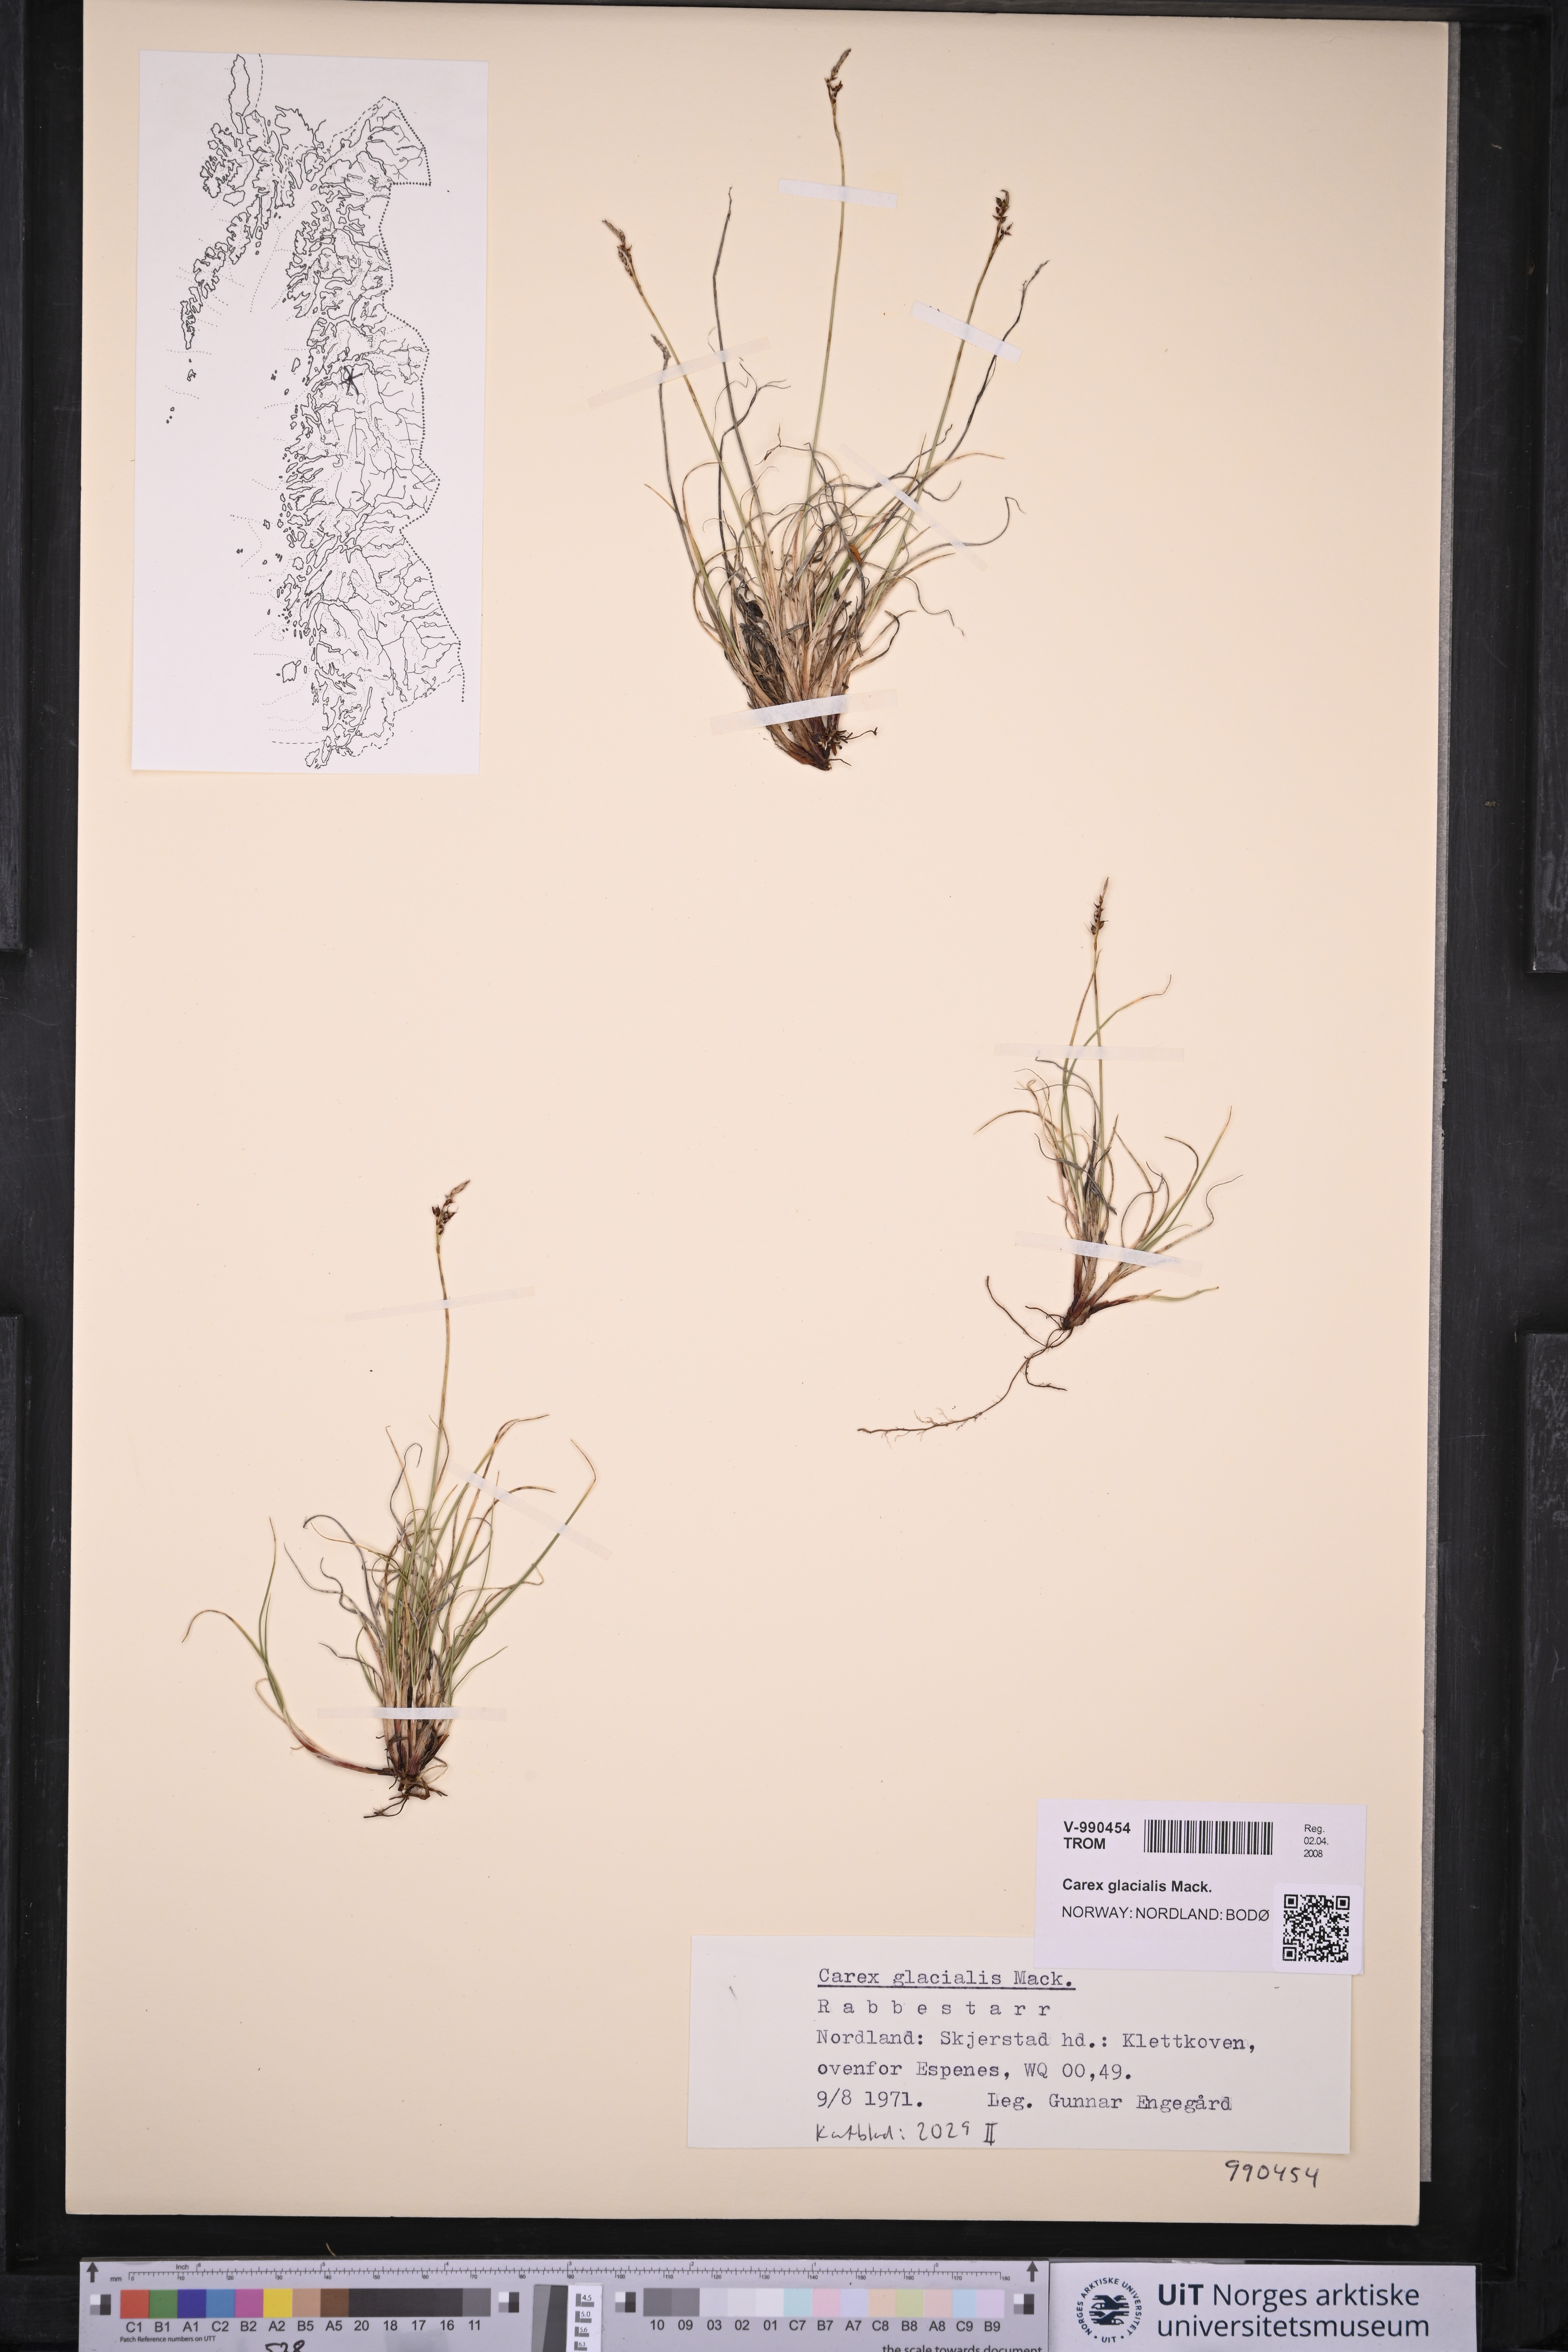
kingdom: Plantae
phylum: Tracheophyta
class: Liliopsida
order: Poales
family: Cyperaceae
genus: Carex
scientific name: Carex glacialis
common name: Newfoundland sedge
